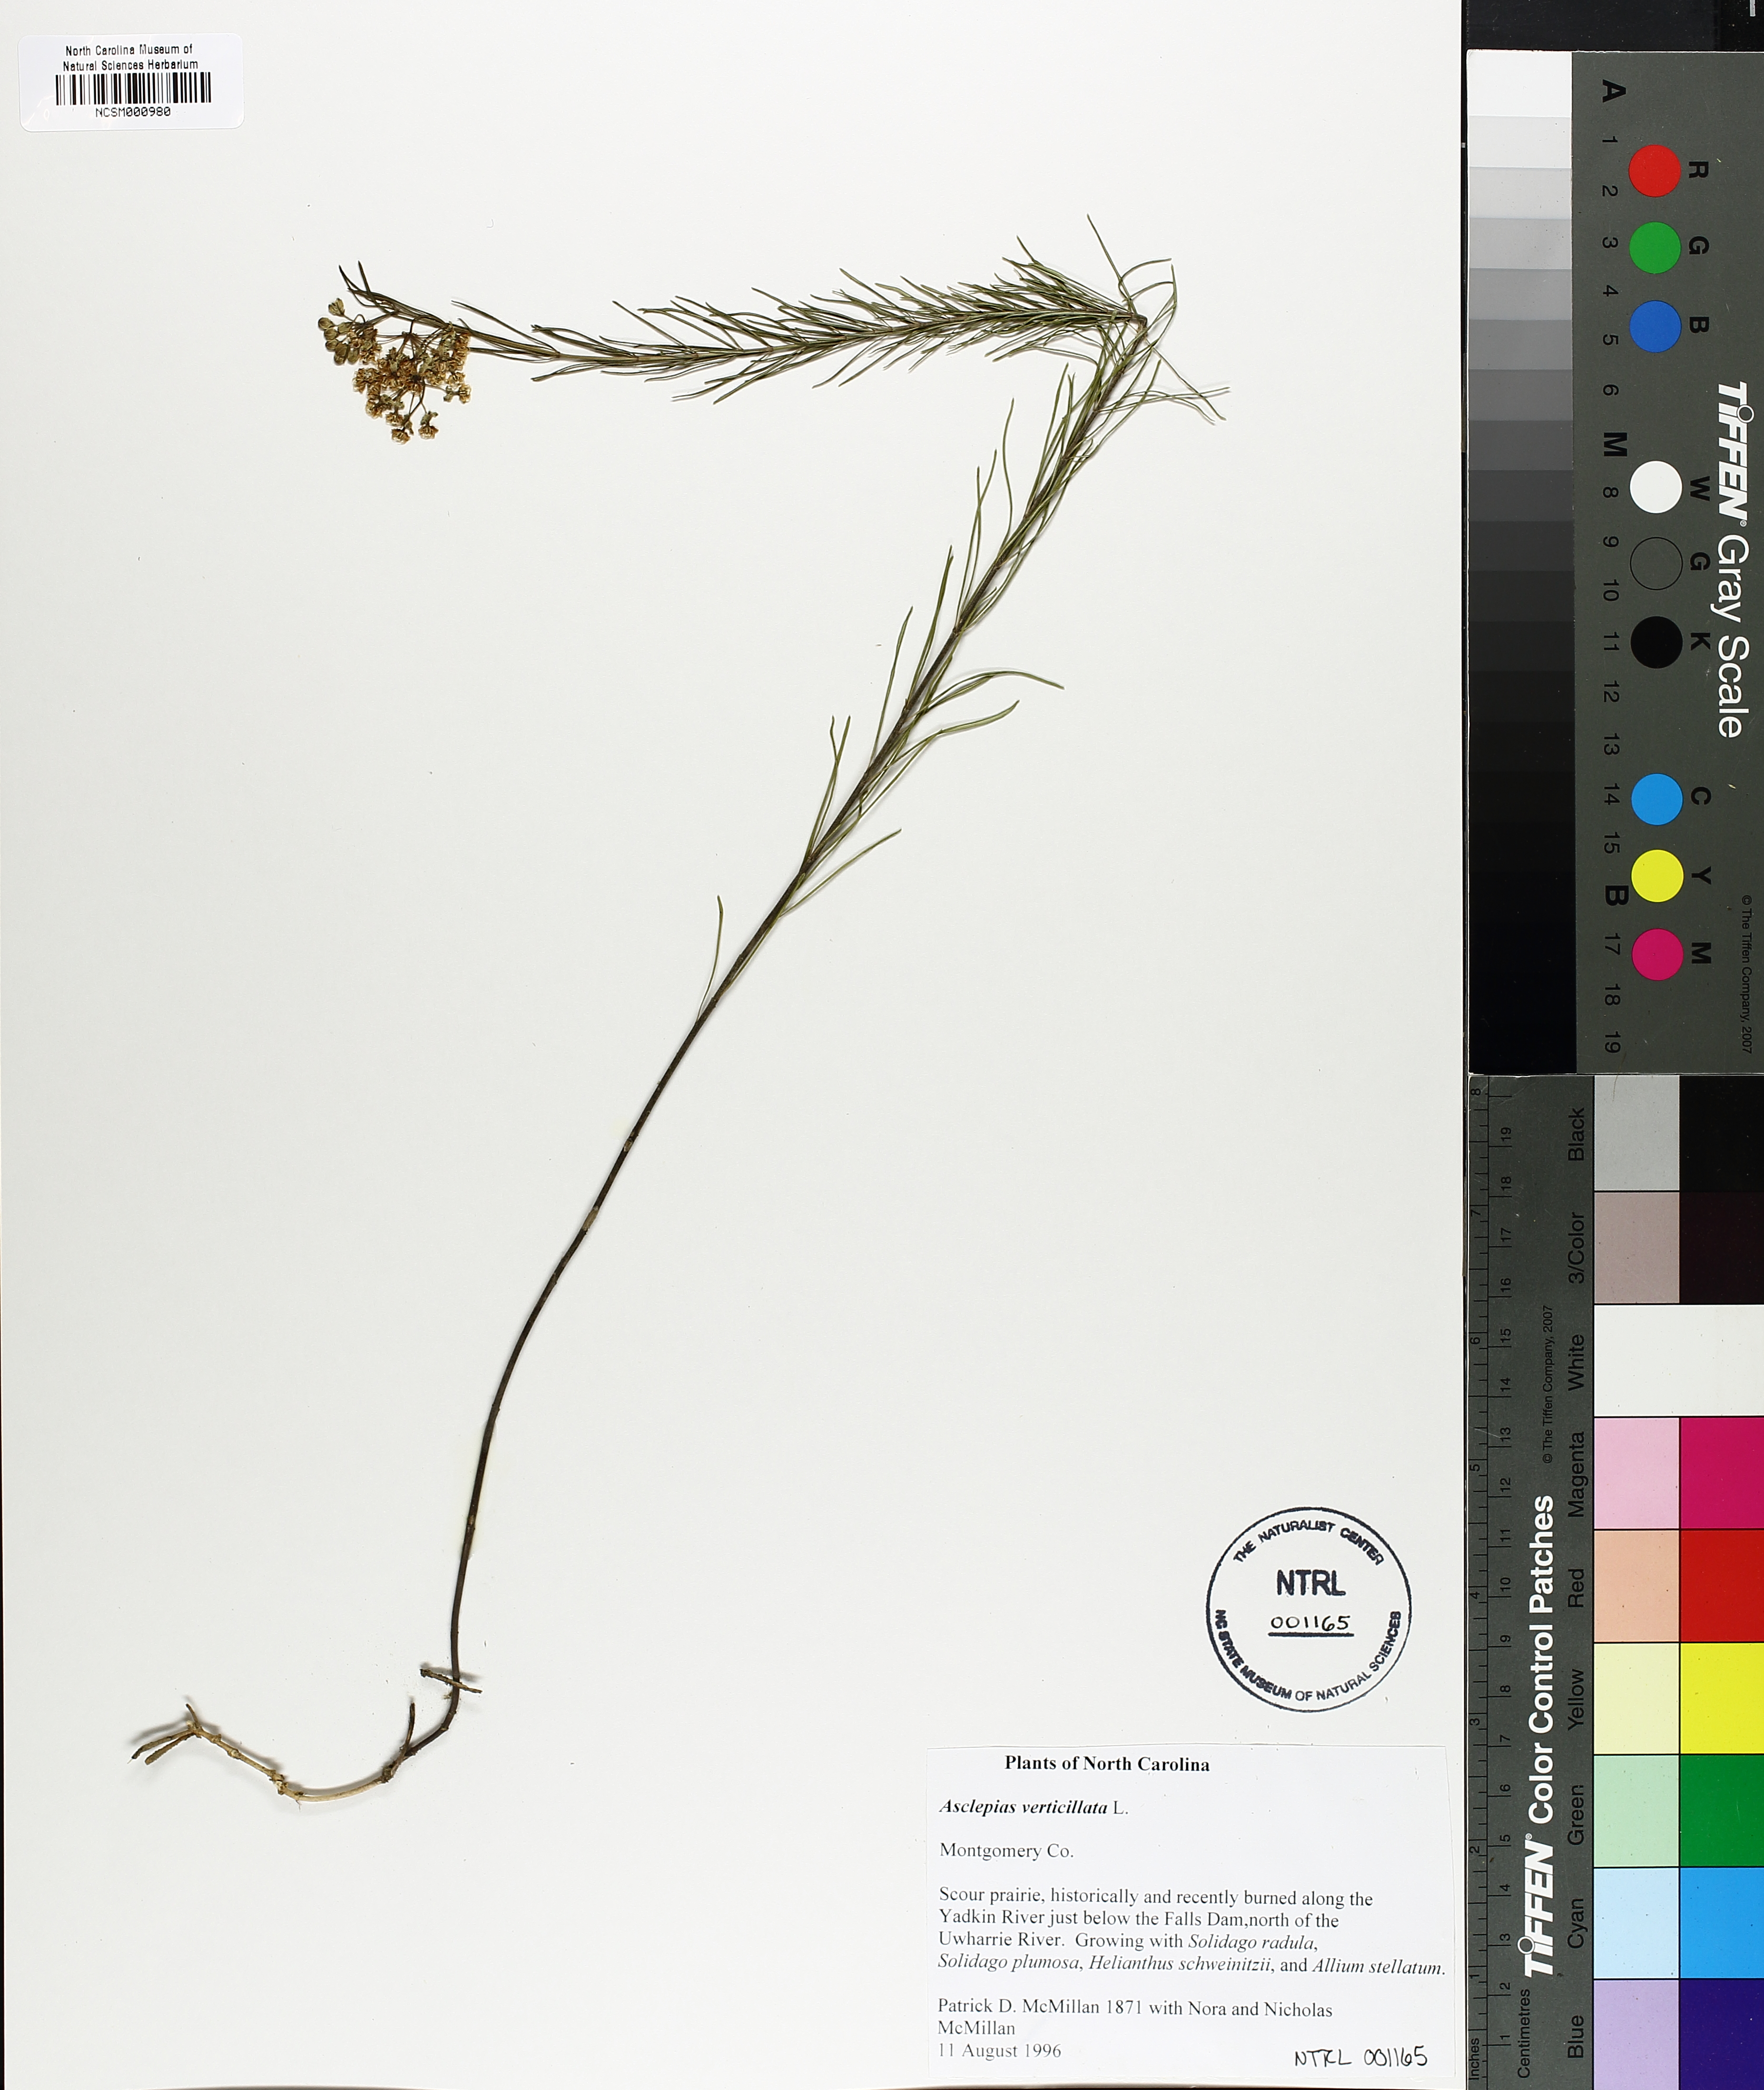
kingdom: Plantae
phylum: Tracheophyta
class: Magnoliopsida
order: Gentianales
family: Apocynaceae
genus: Asclepias
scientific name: Asclepias verticillata
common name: Eastern whorled milkweed
